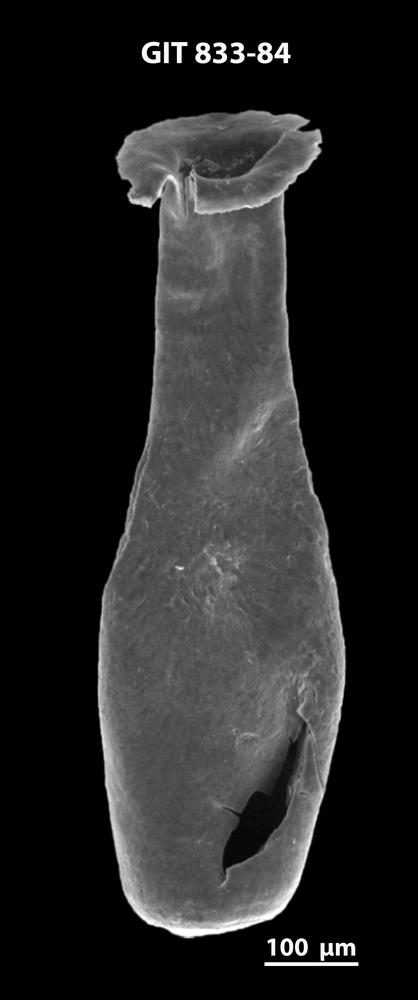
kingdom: Animalia
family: Lagenochitinidae
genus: Lagenochitina
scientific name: Lagenochitina megaesthonica
